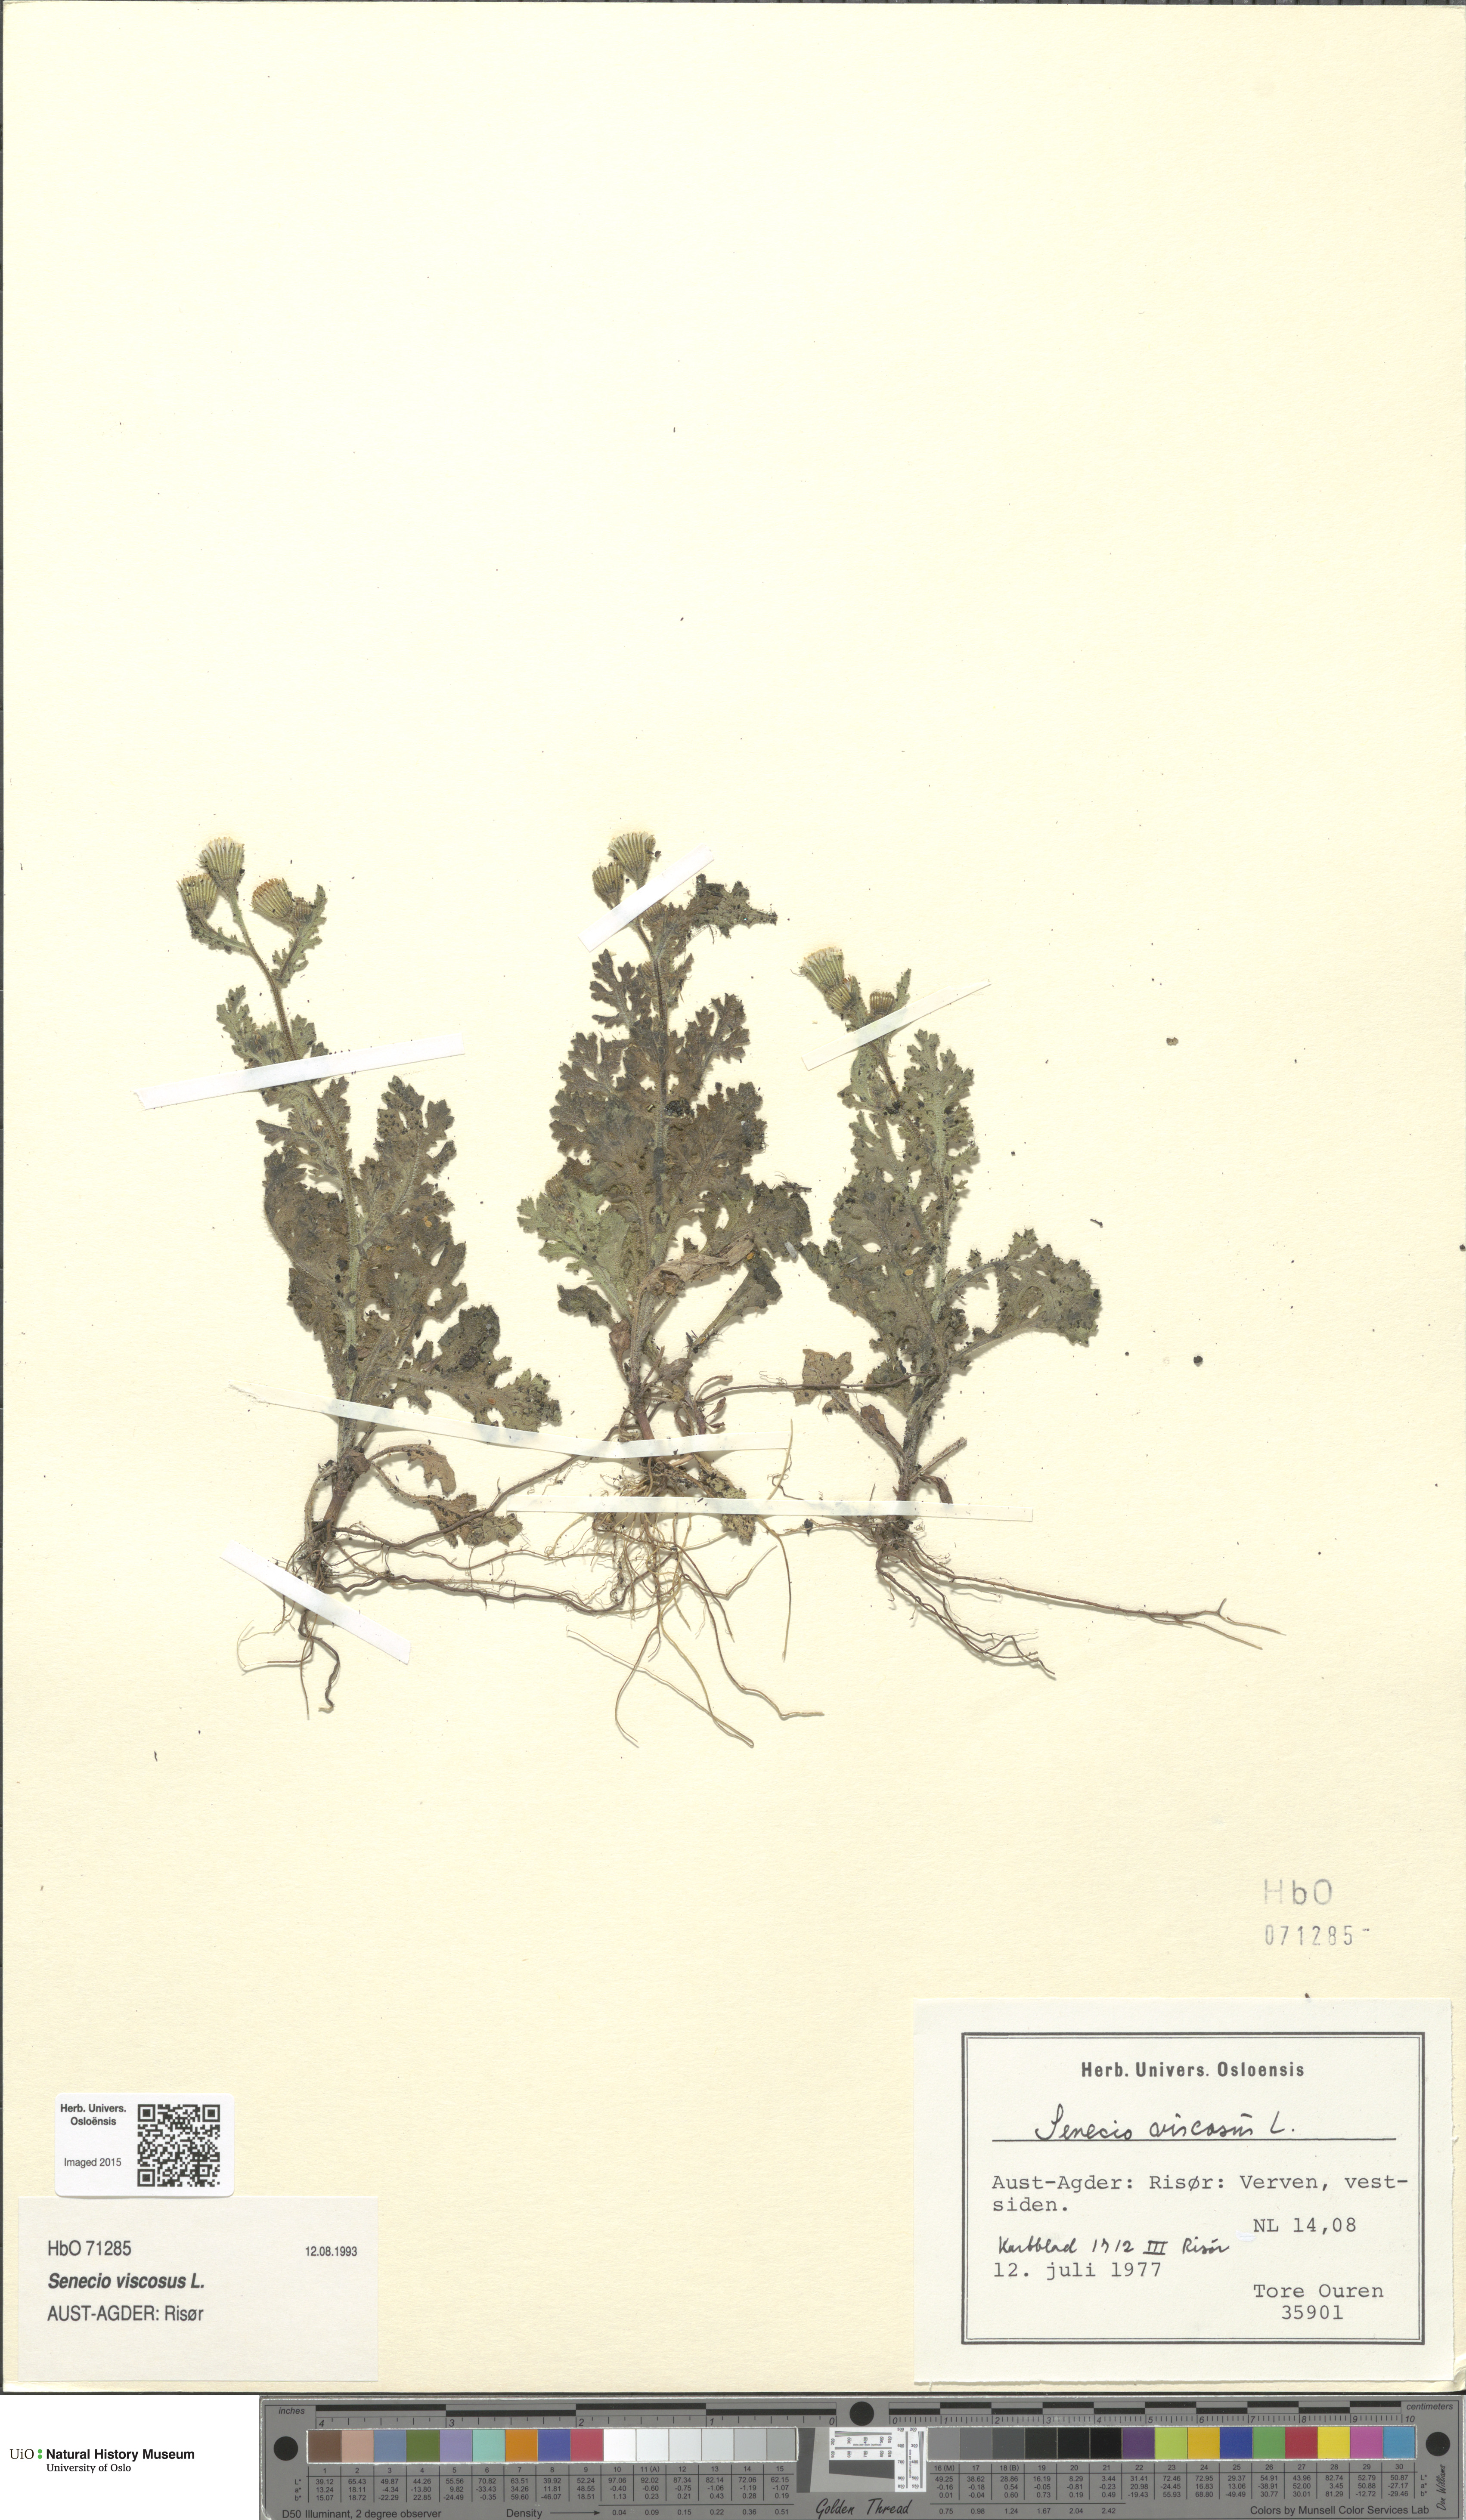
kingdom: Plantae
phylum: Tracheophyta
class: Magnoliopsida
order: Asterales
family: Asteraceae
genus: Senecio
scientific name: Senecio viscosus
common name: Sticky groundsel
